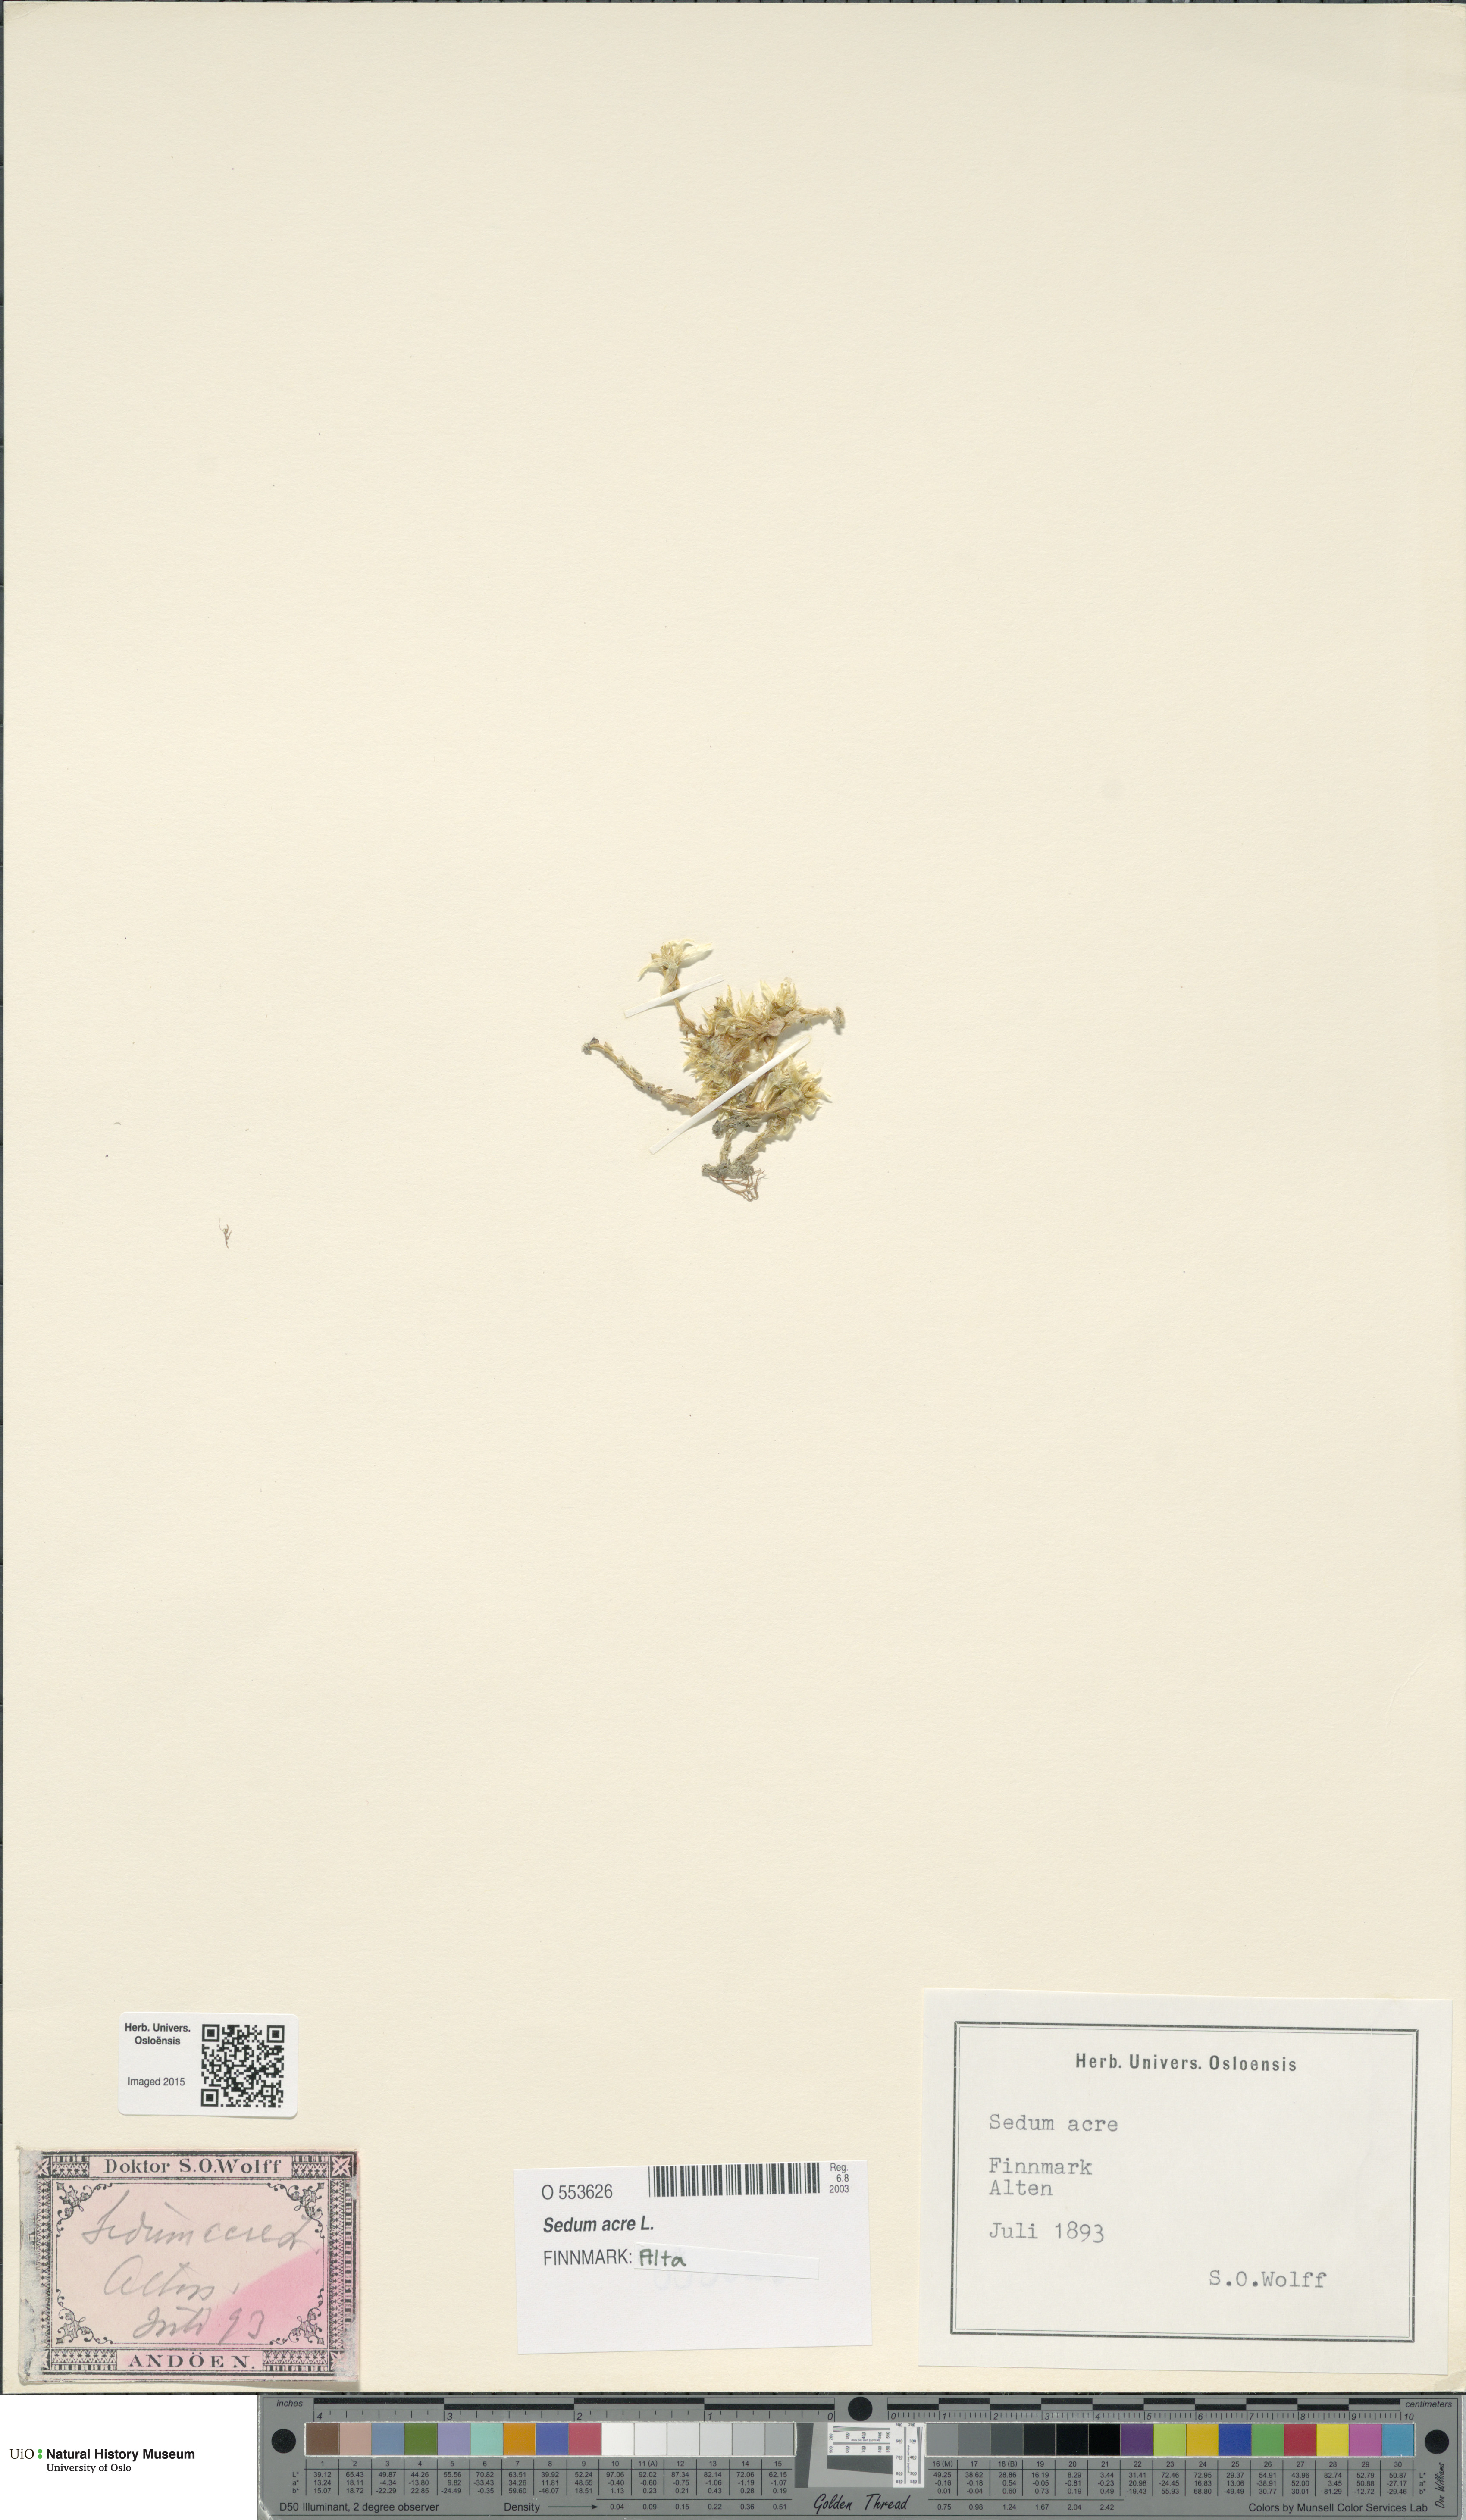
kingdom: Plantae
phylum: Tracheophyta
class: Magnoliopsida
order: Saxifragales
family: Crassulaceae
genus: Sedum
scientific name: Sedum acre
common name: Biting stonecrop
